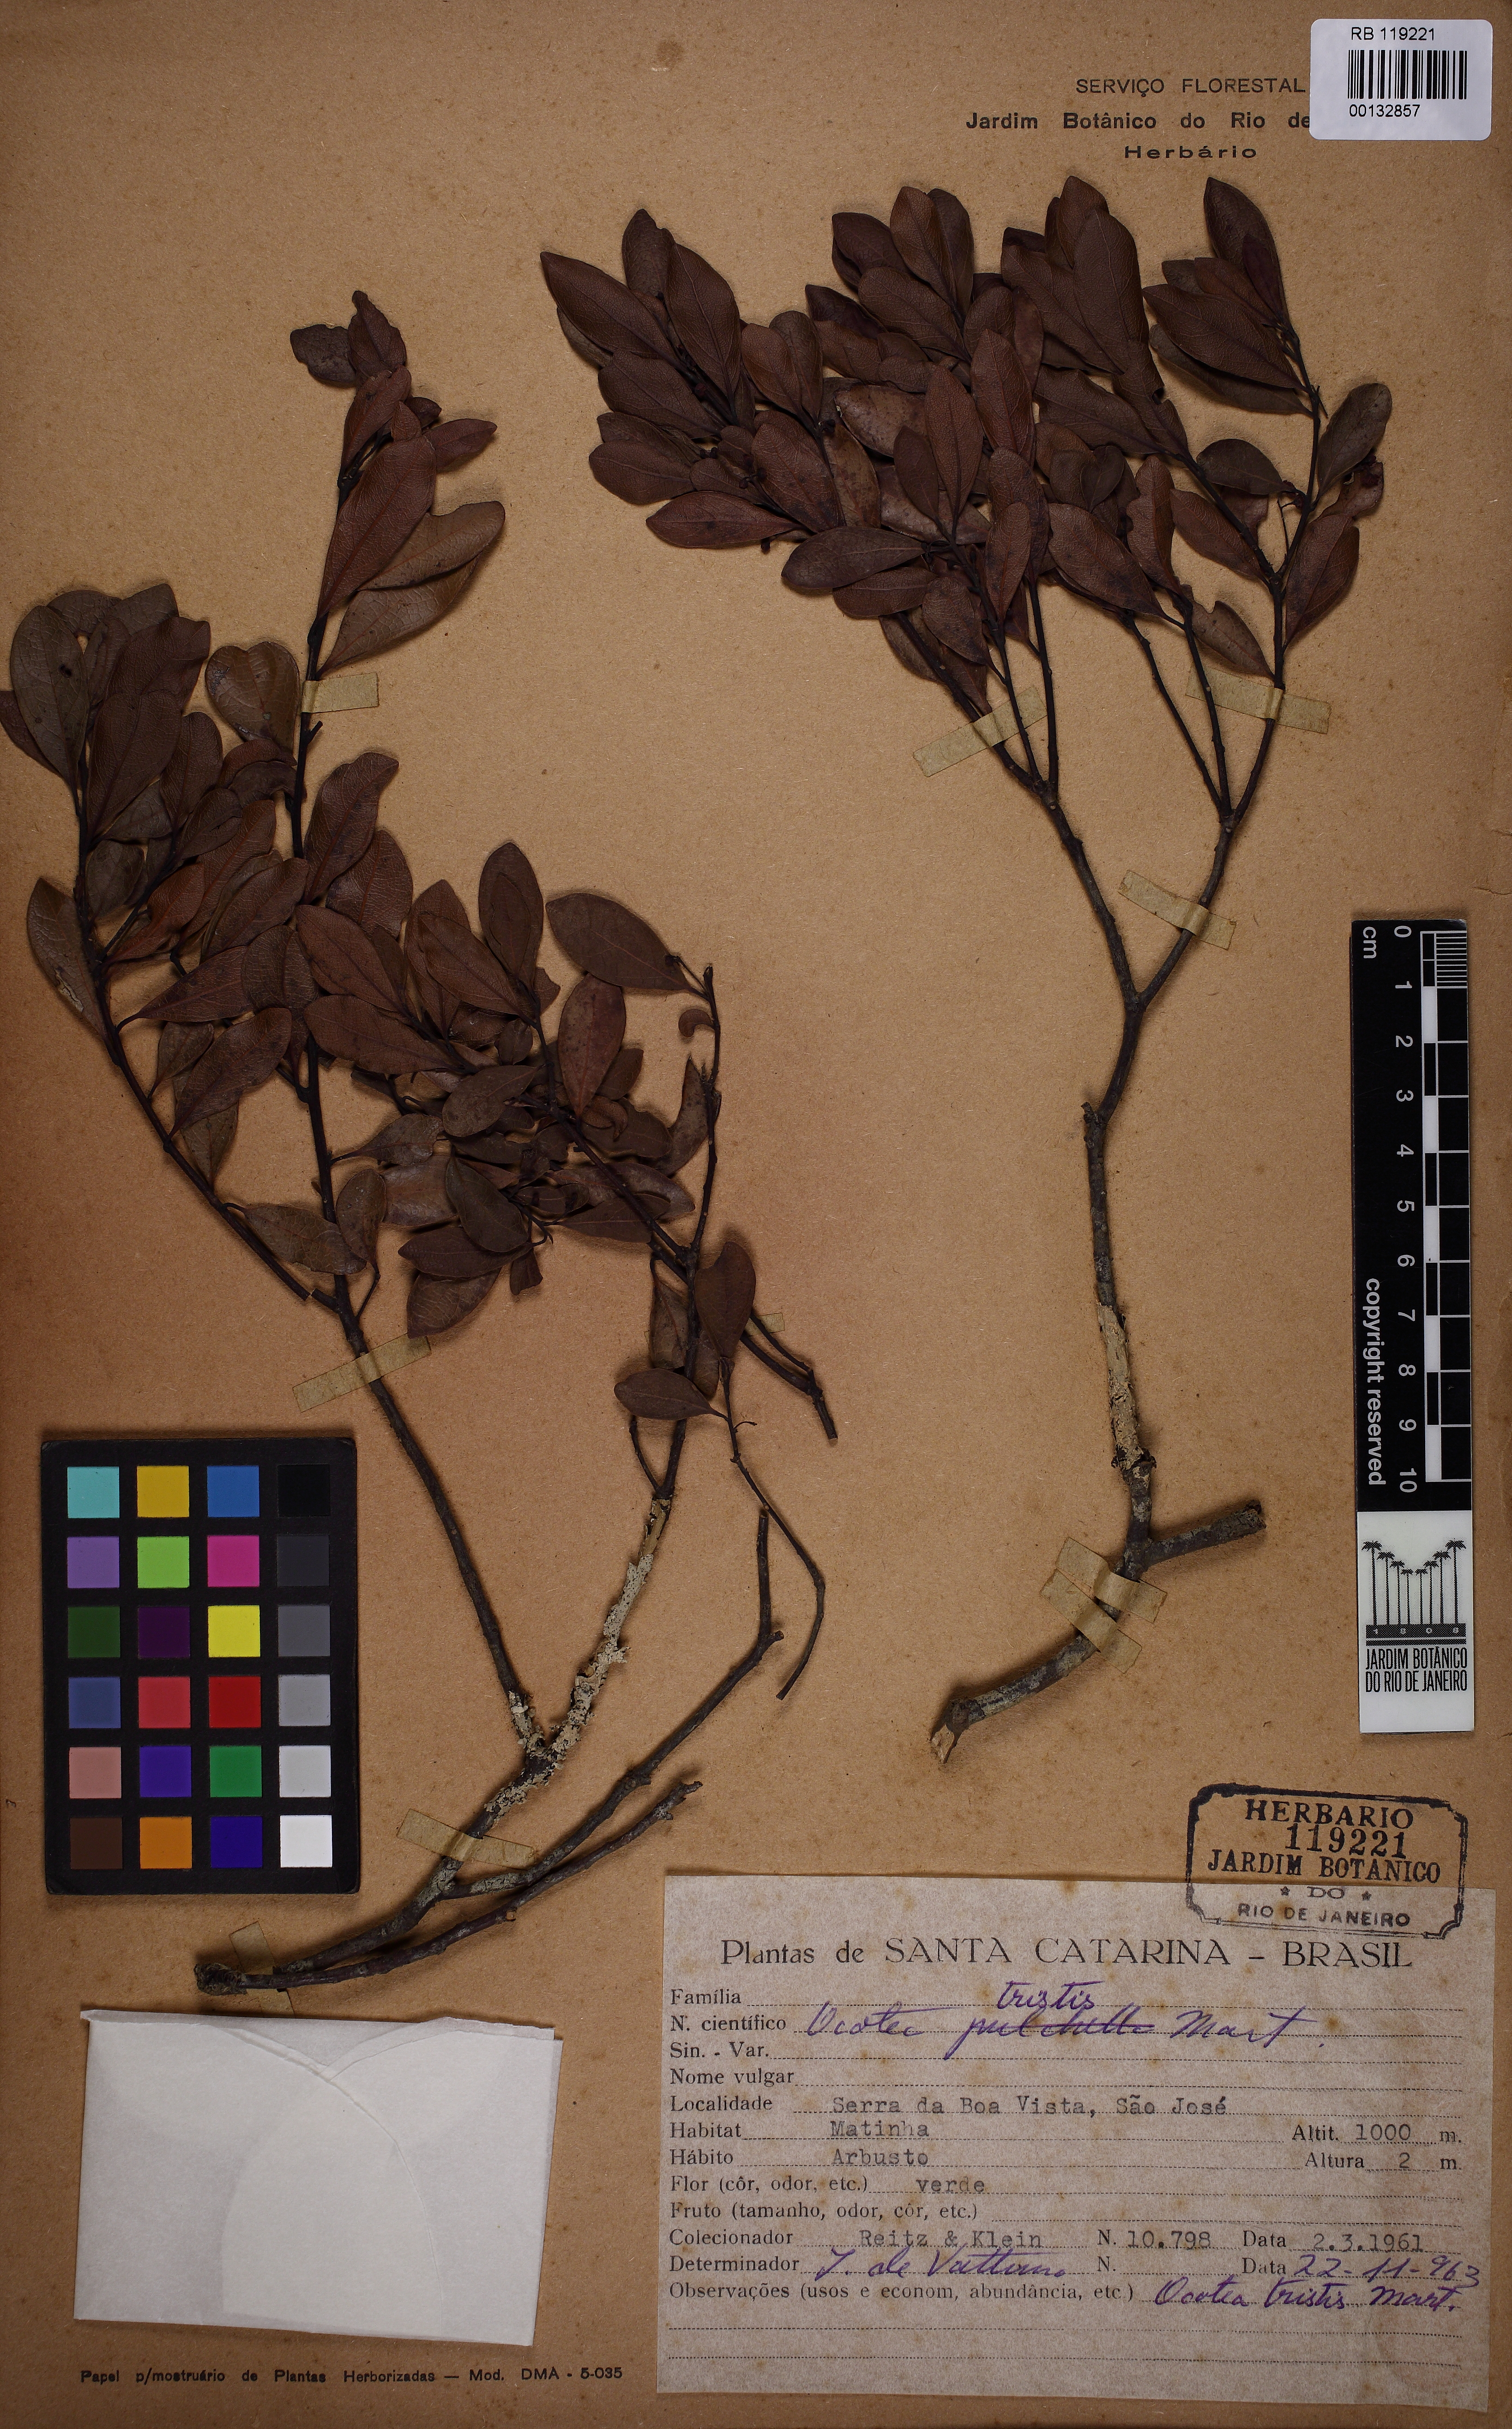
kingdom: Plantae
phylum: Tracheophyta
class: Magnoliopsida
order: Laurales
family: Lauraceae
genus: Mespilodaphne
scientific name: Mespilodaphne tristis
